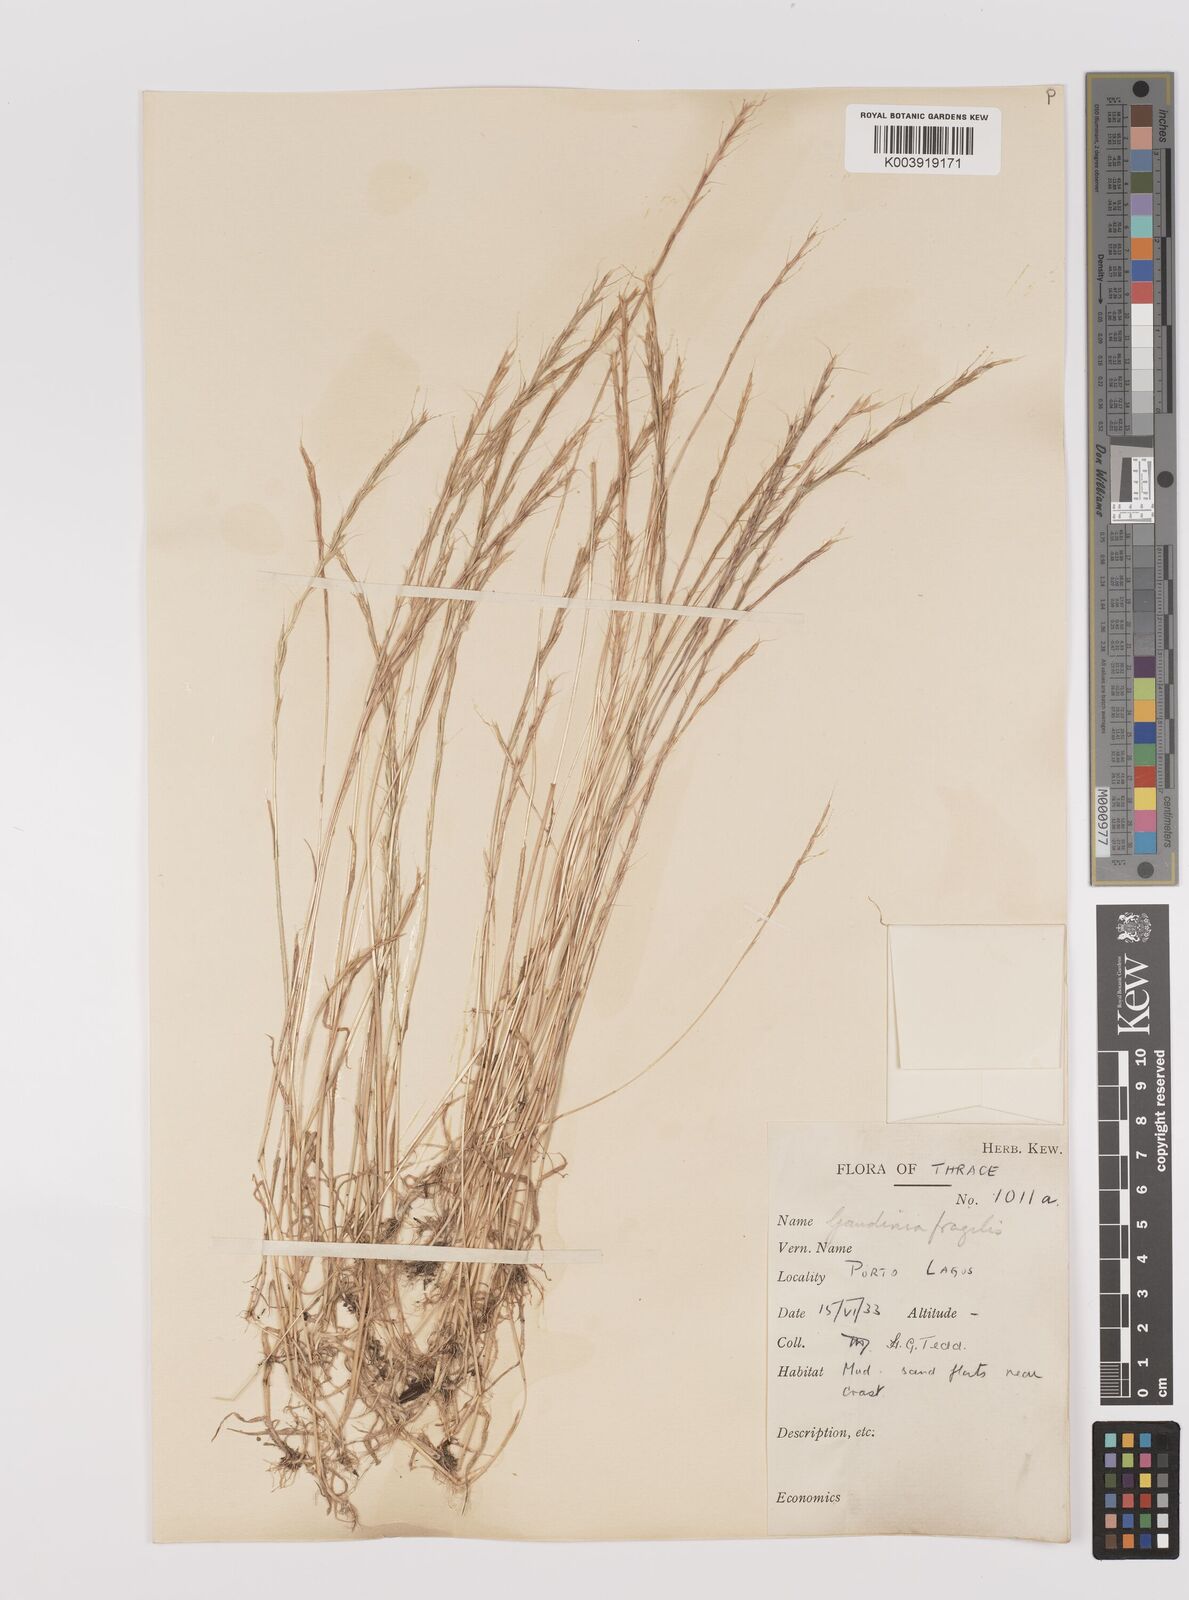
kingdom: Plantae
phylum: Tracheophyta
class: Liliopsida
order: Poales
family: Poaceae
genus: Gaudinia
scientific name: Gaudinia fragilis
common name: French oat-grass
